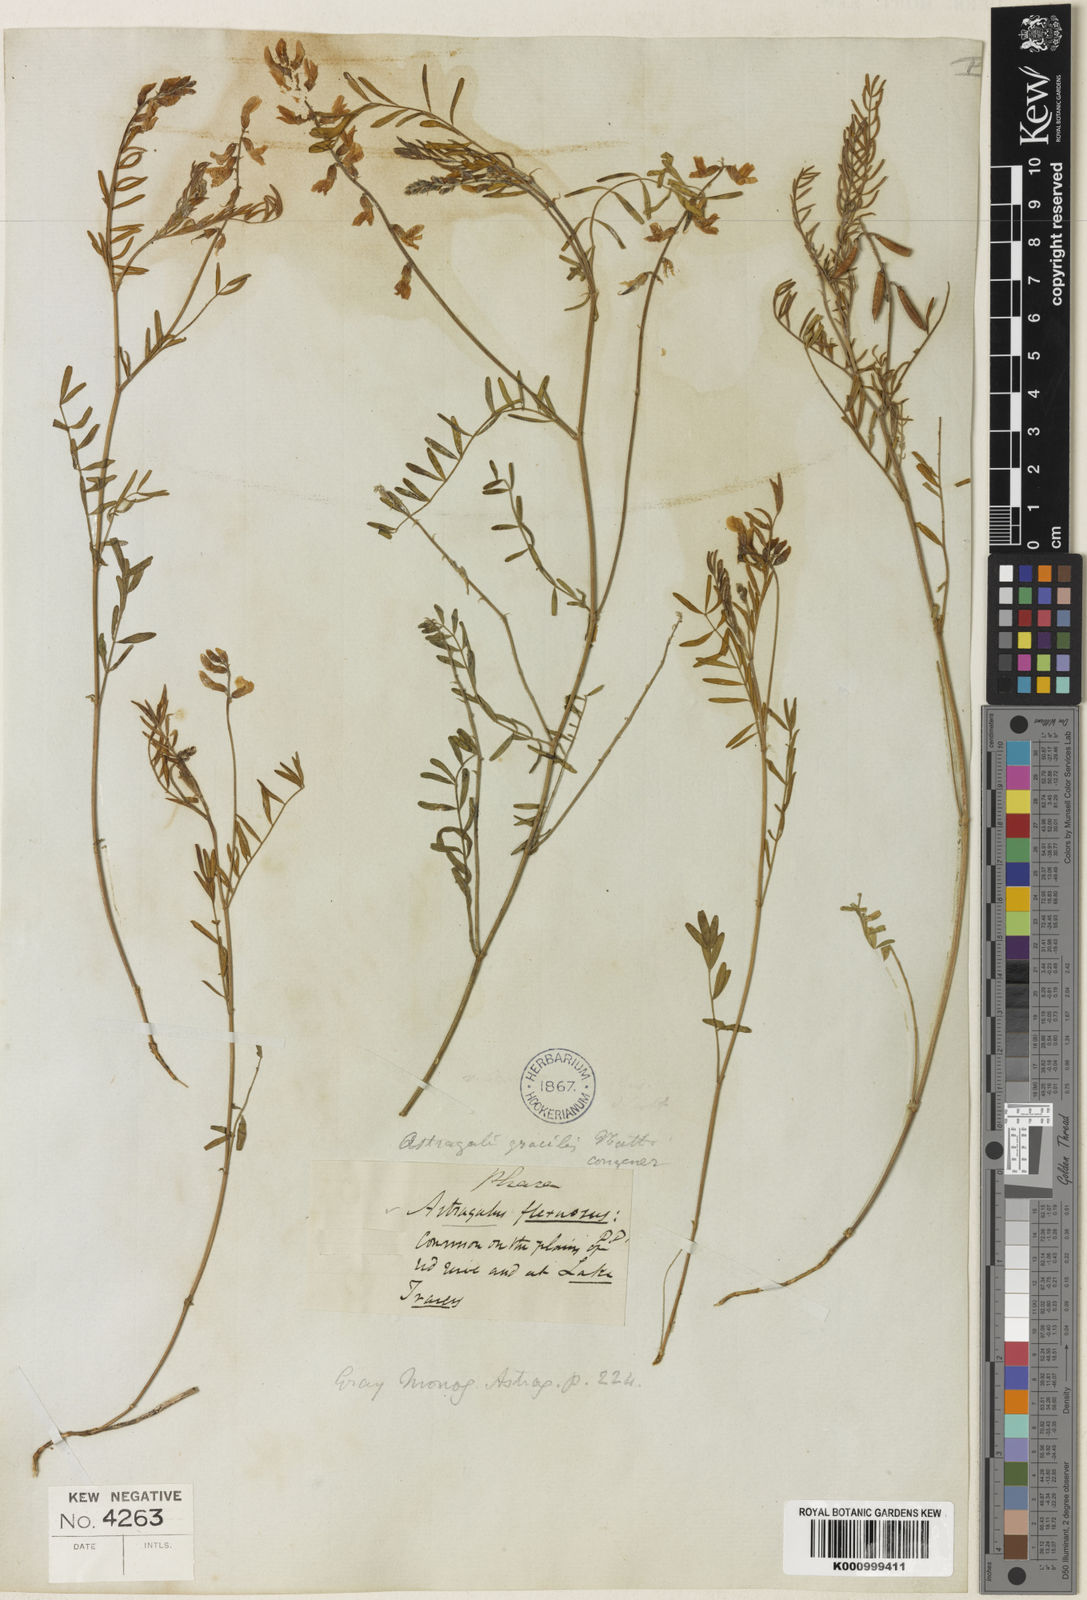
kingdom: Plantae
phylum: Tracheophyta
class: Magnoliopsida
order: Fabales
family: Fabaceae
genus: Astragalus
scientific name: Astragalus flexuosus
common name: Pliant milk-vetch
